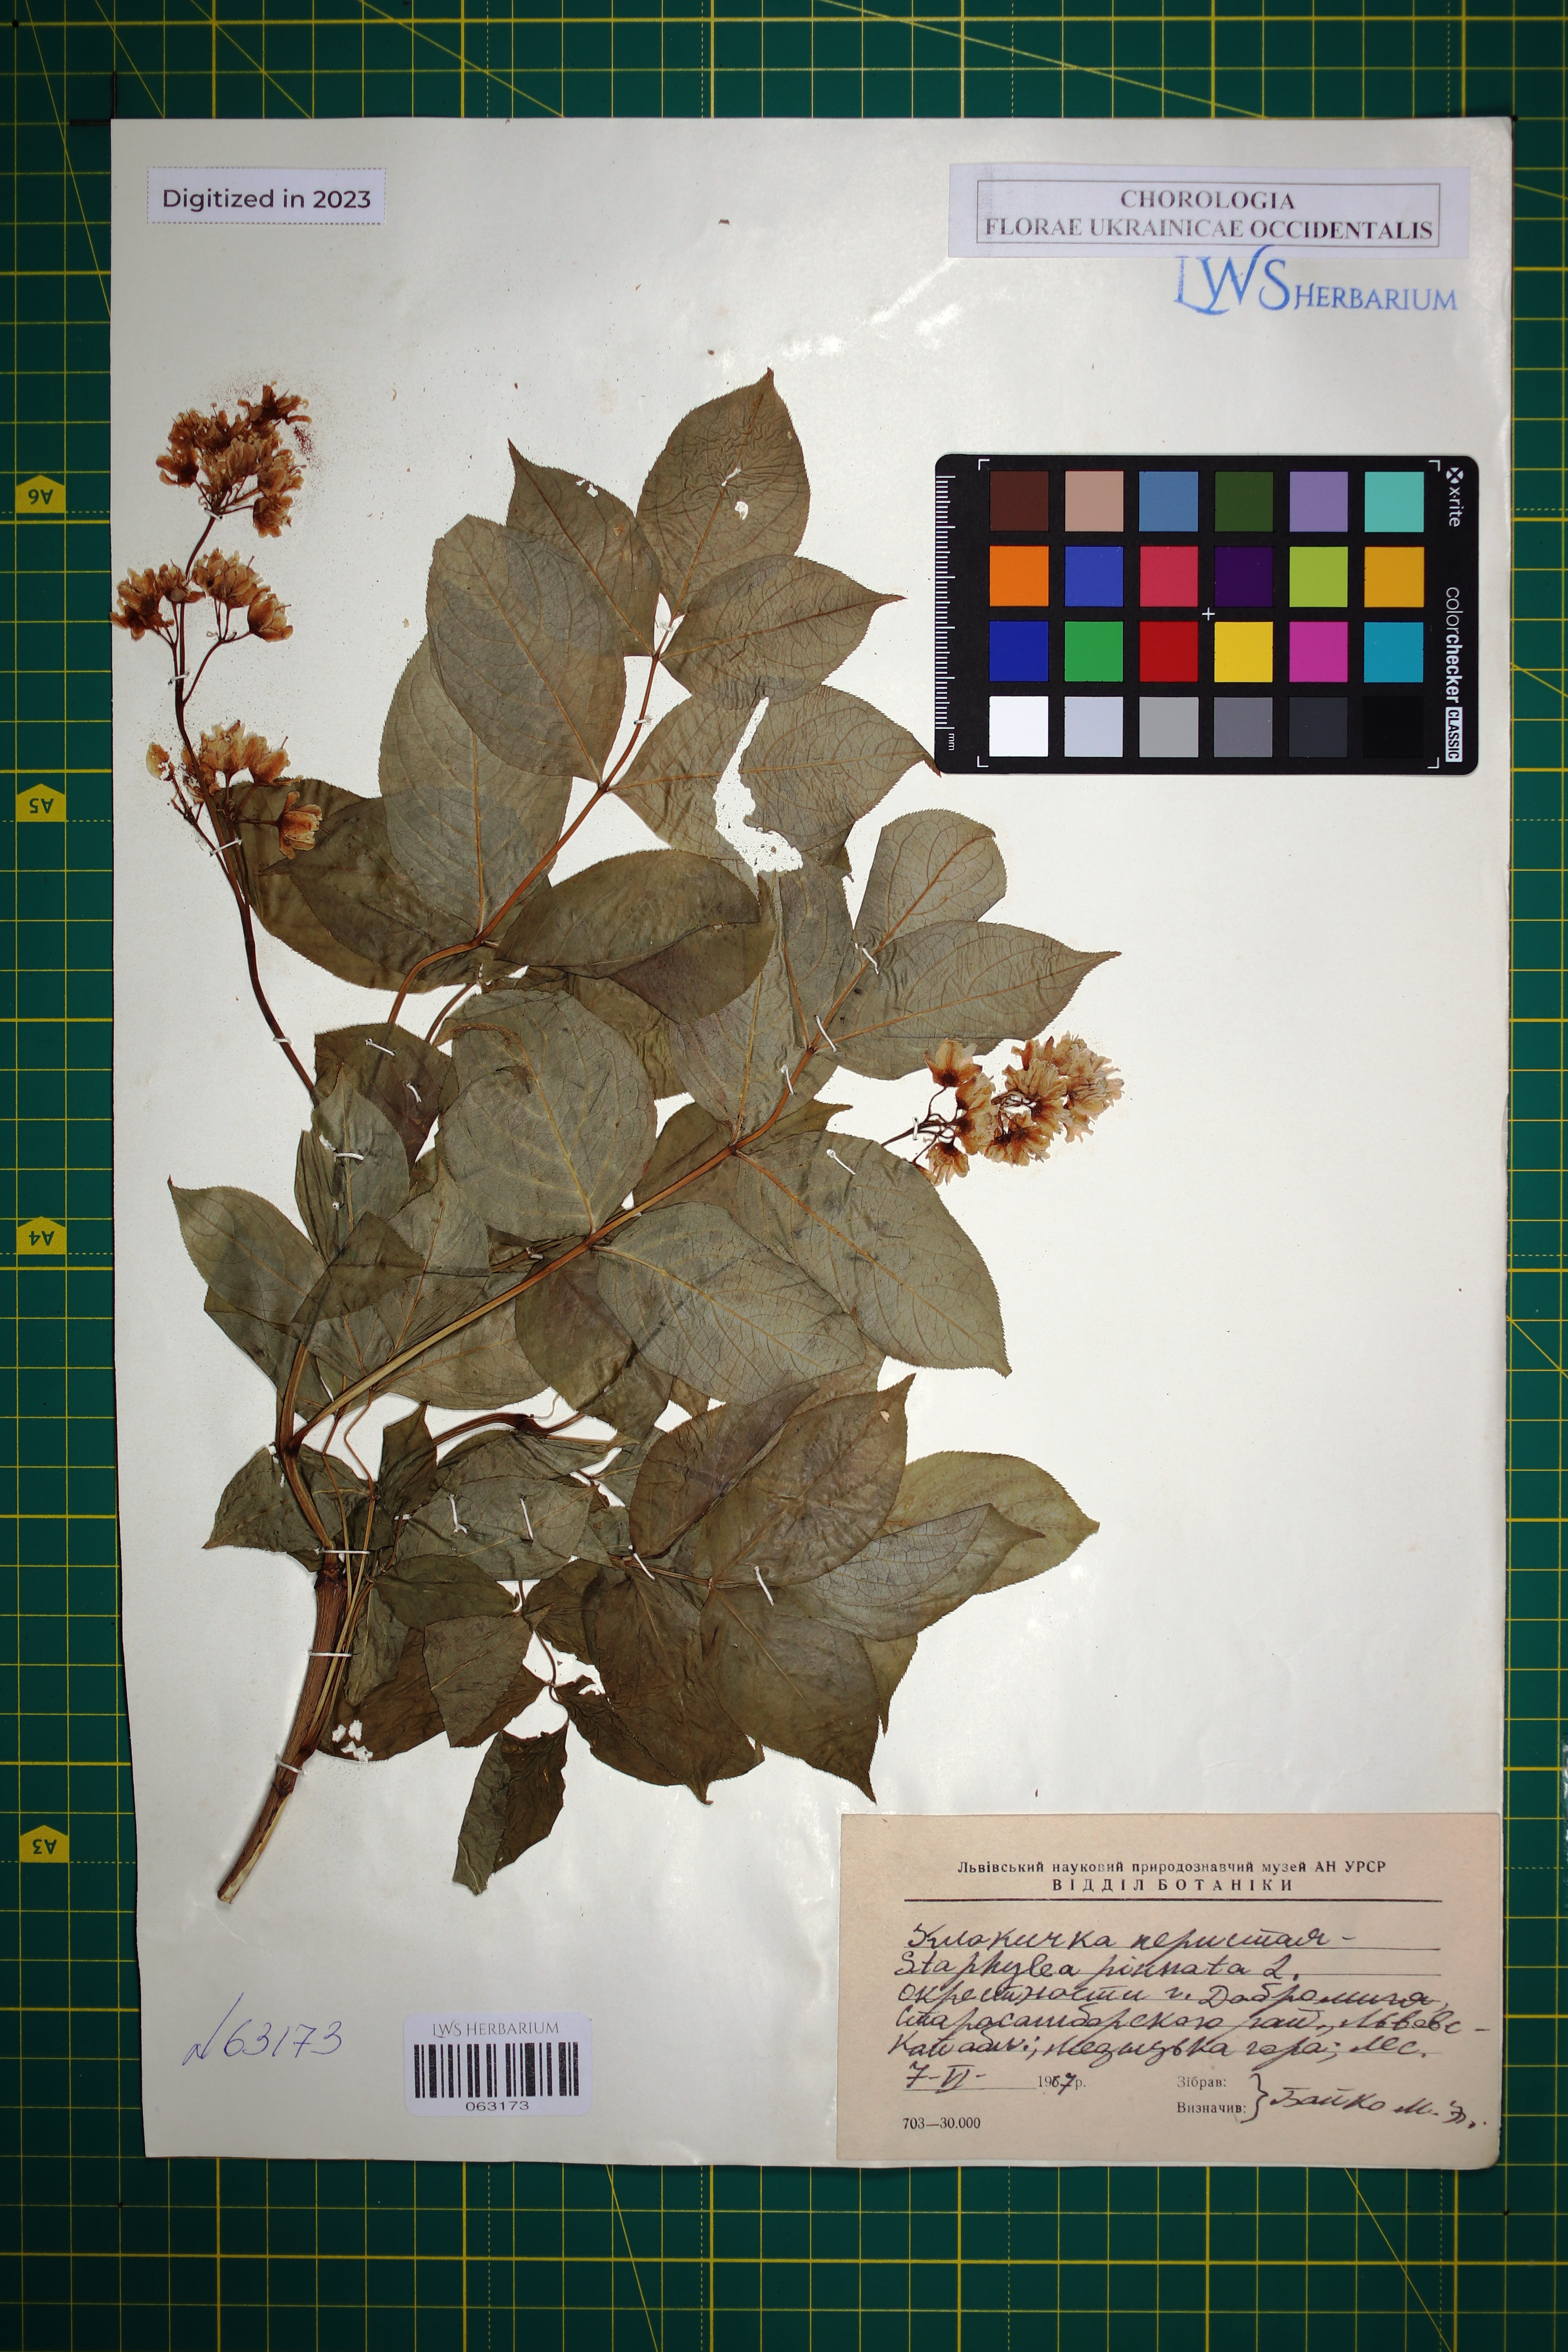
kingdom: Plantae
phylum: Tracheophyta
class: Magnoliopsida
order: Crossosomatales
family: Staphyleaceae
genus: Staphylea
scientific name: Staphylea pinnata
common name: Bladdernut
